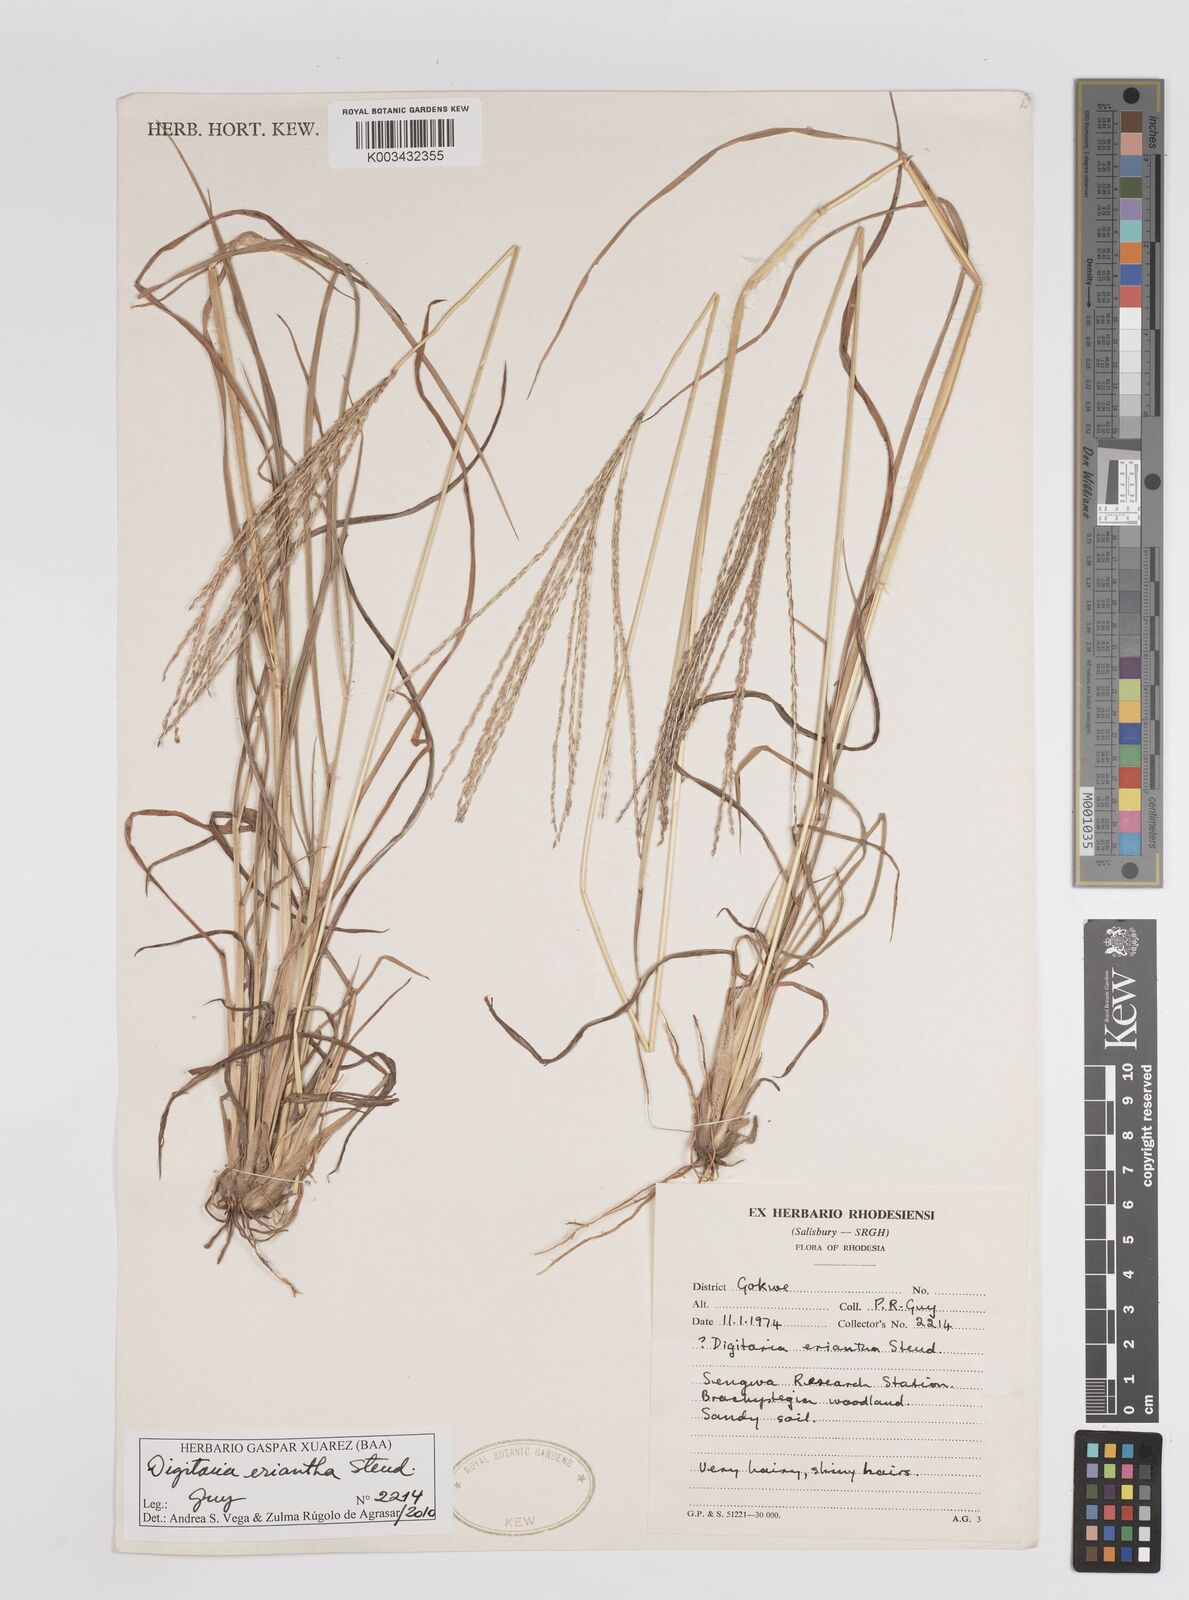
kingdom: Plantae
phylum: Tracheophyta
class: Liliopsida
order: Poales
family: Poaceae
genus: Digitaria
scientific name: Digitaria eriantha
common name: Digitgrass
